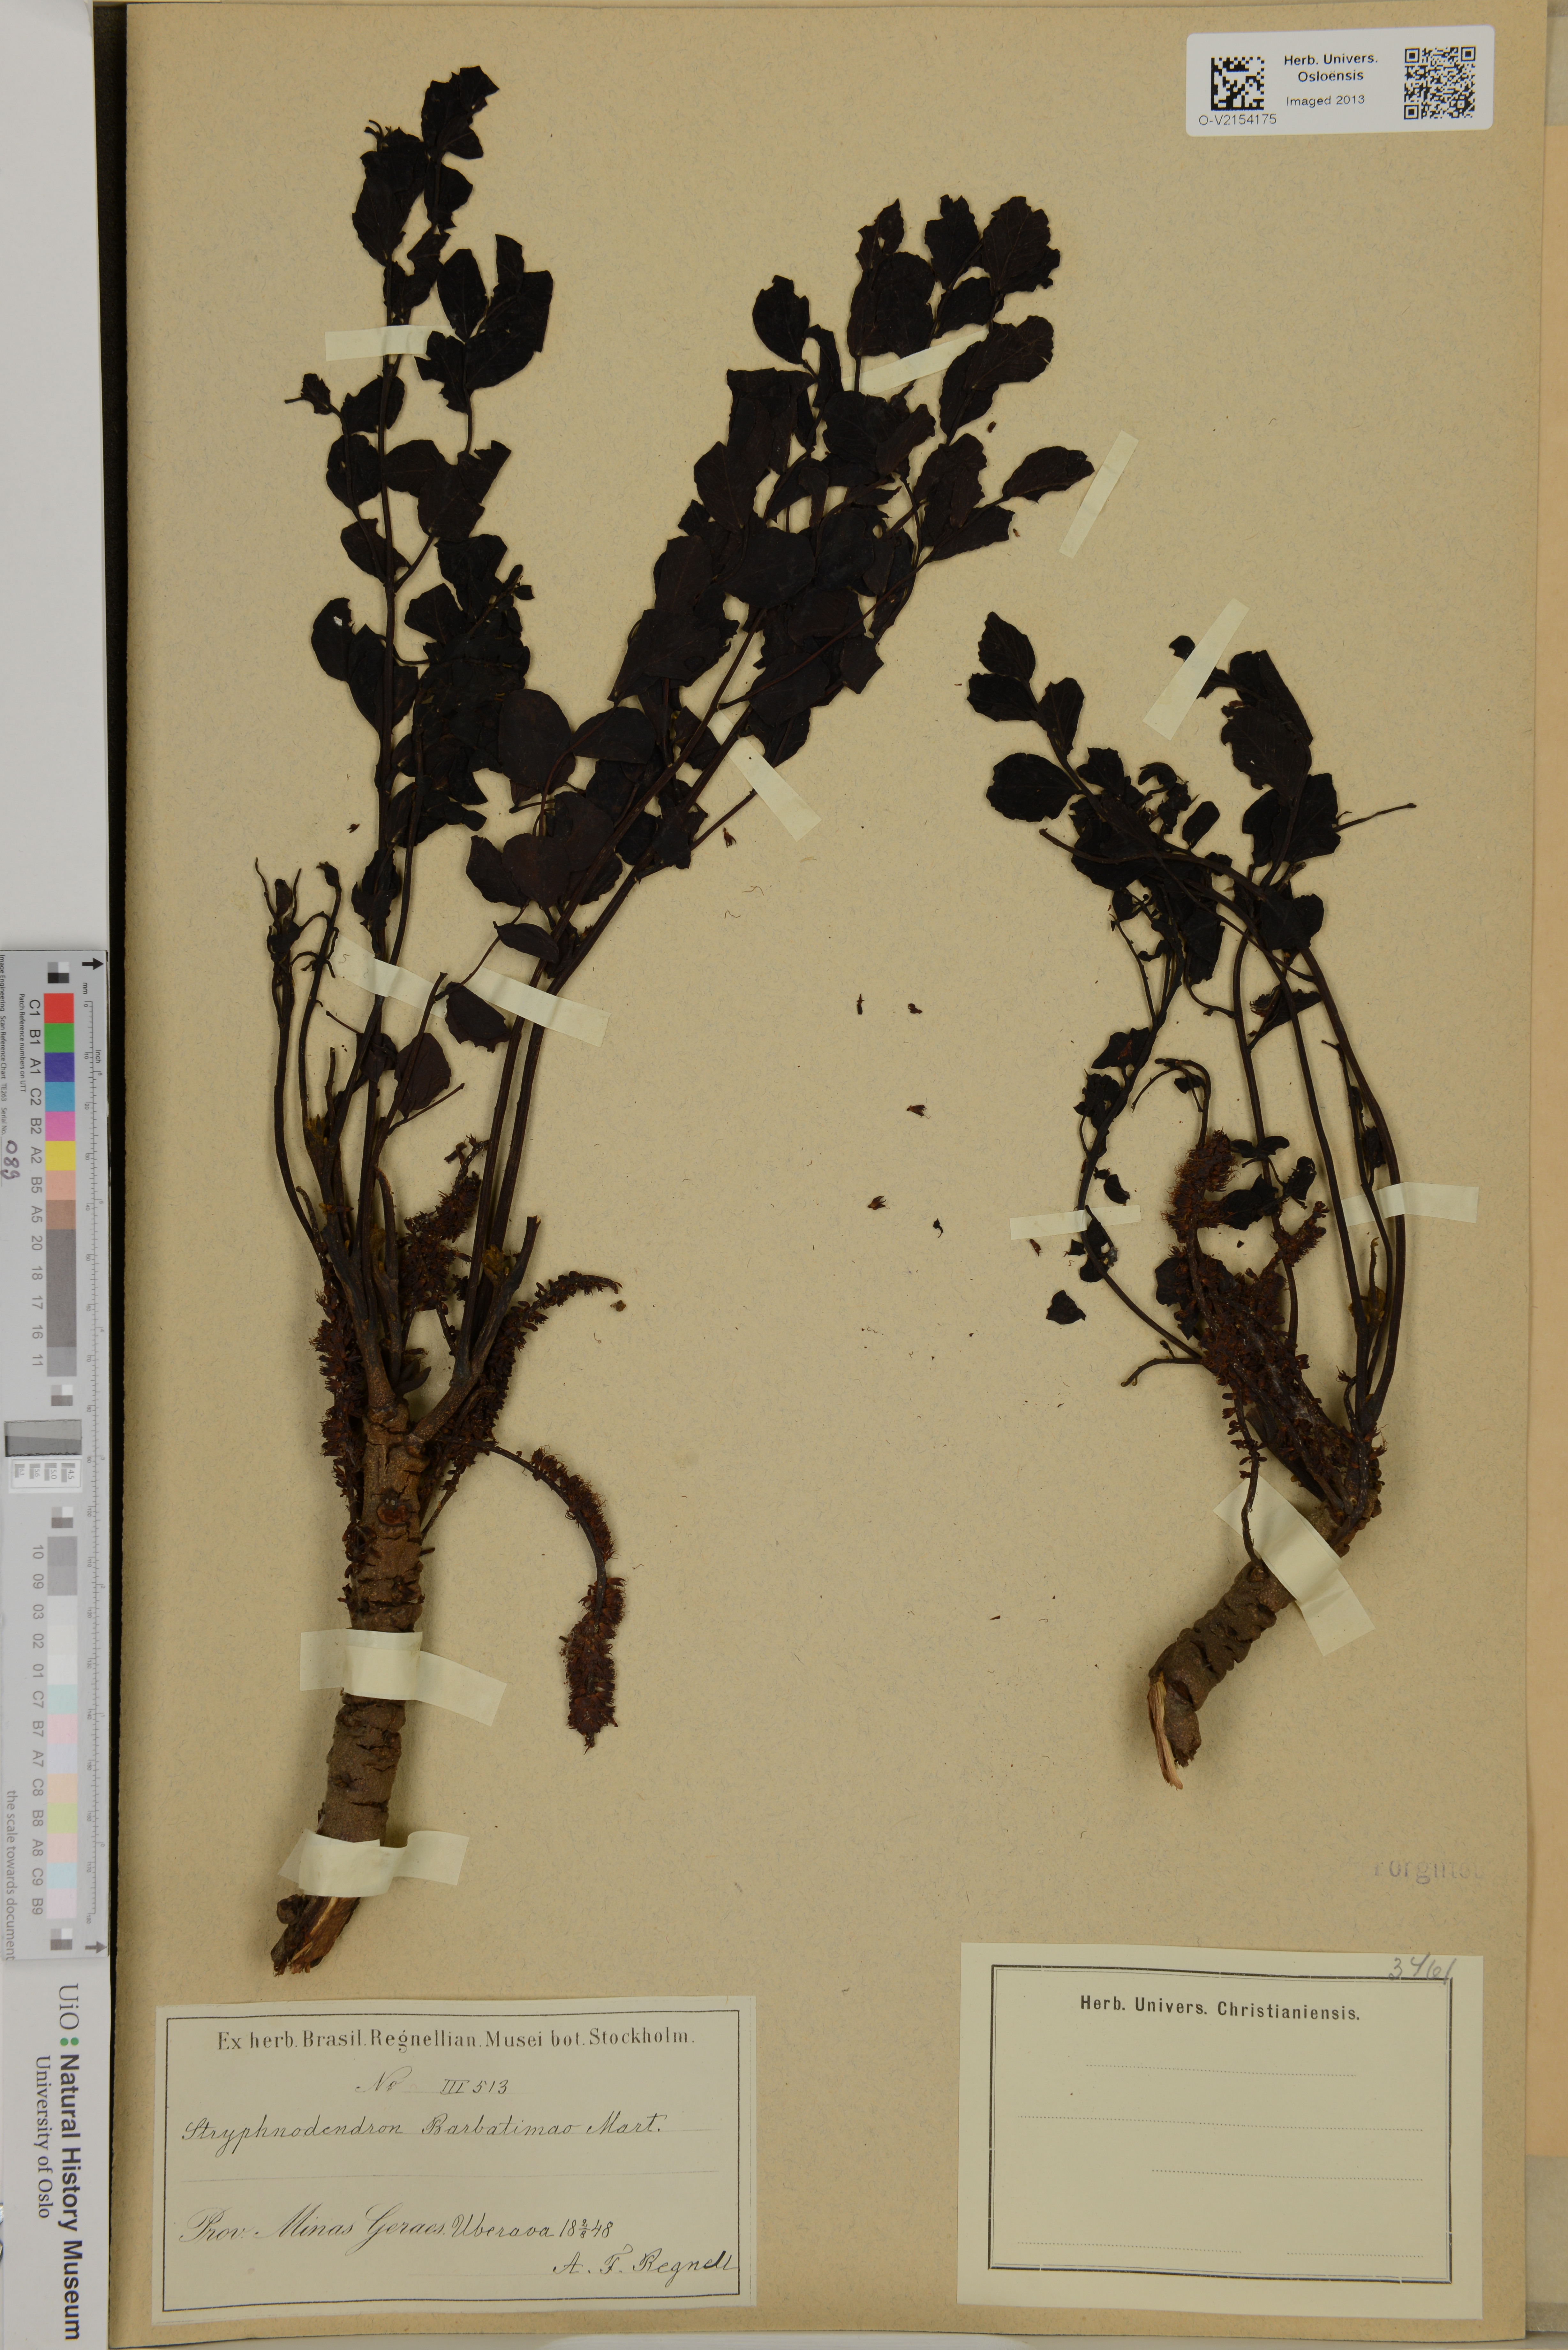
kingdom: Plantae
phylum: Tracheophyta
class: Magnoliopsida
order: Fabales
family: Fabaceae
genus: Stryphnodendron
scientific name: Stryphnodendron barbatimao
